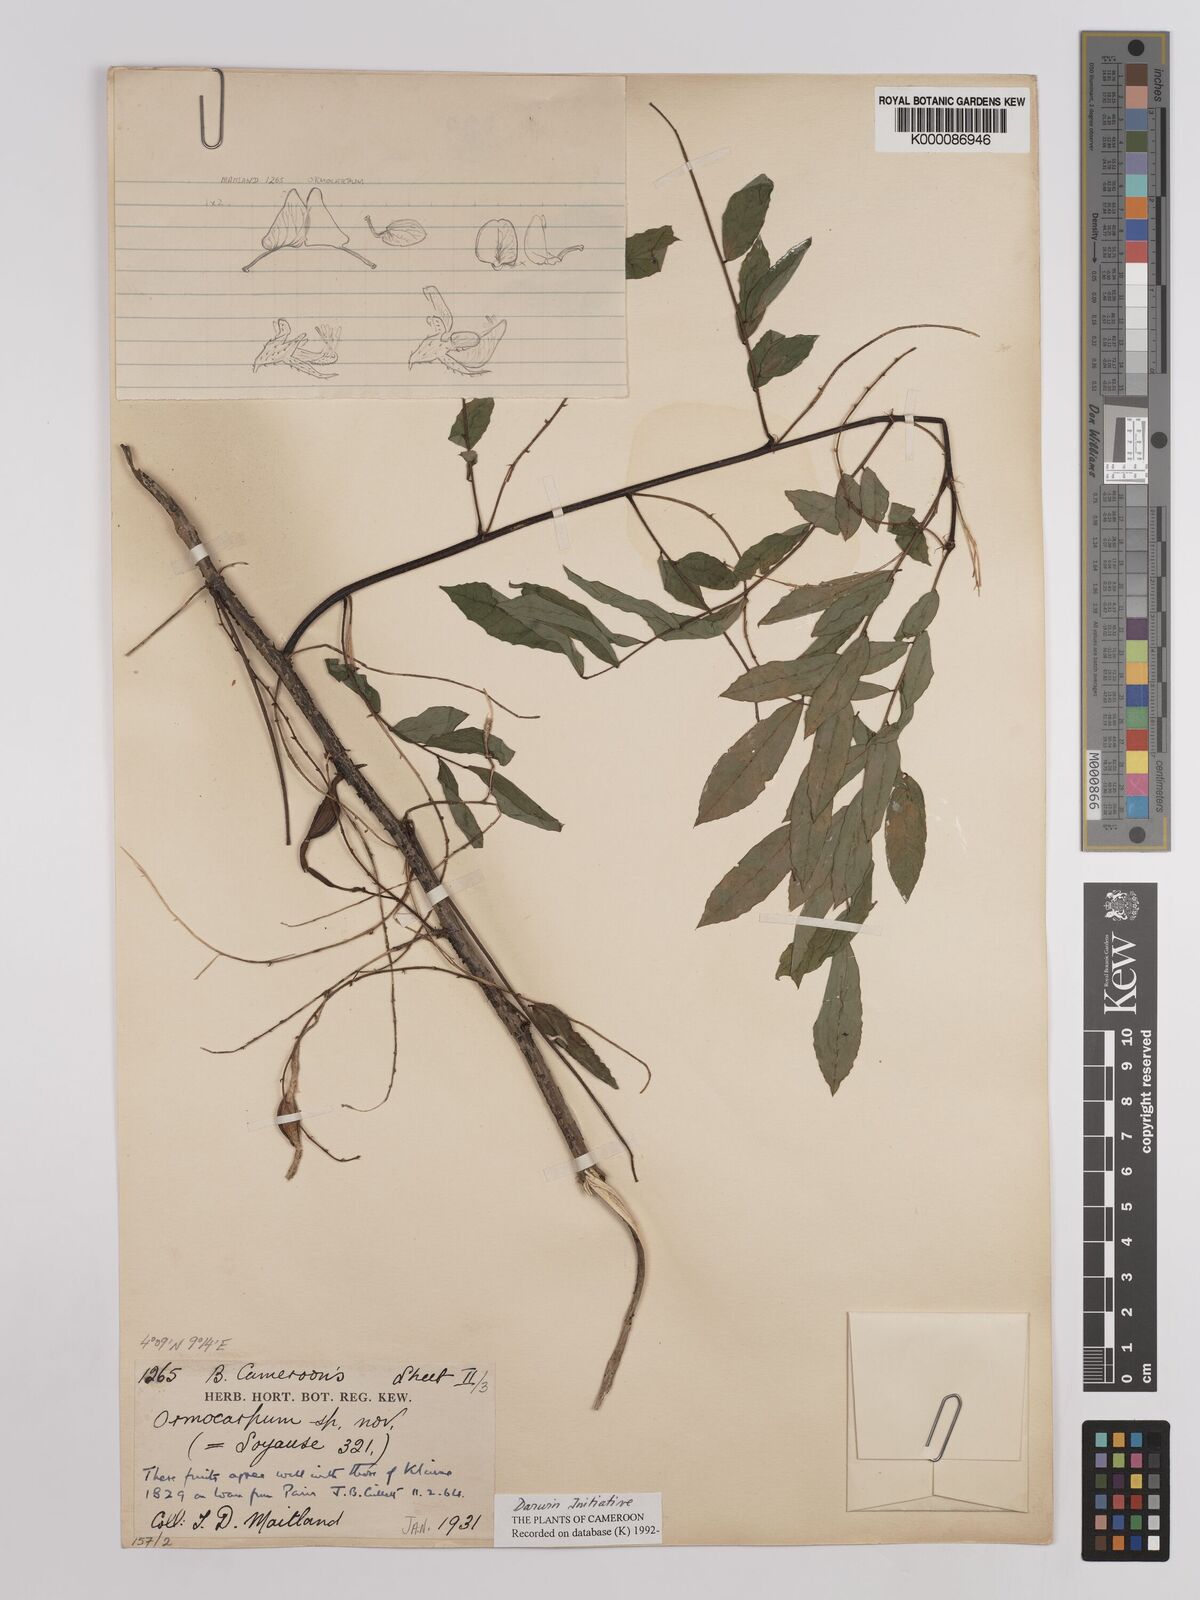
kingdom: Plantae
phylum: Tracheophyta
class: Magnoliopsida
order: Fabales
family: Fabaceae
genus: Ormocarpum
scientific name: Ormocarpum klainei
